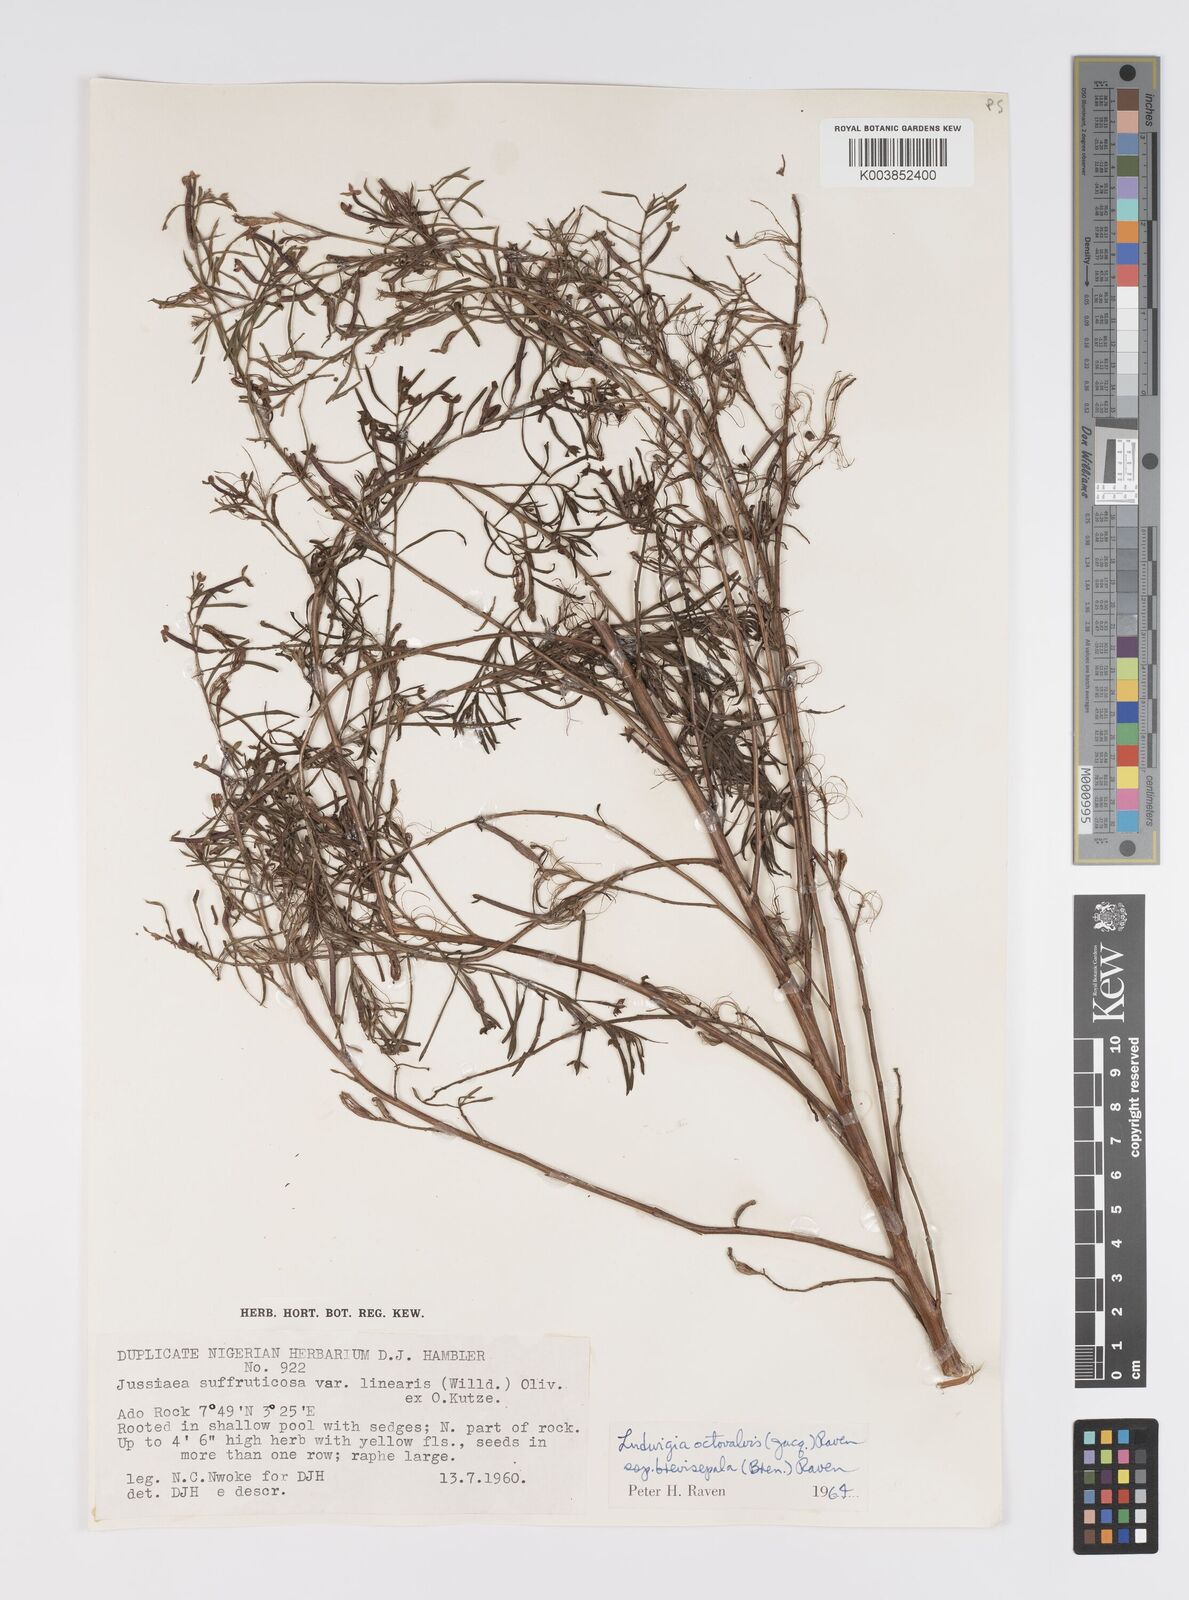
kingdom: Plantae
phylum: Tracheophyta
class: Magnoliopsida
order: Myrtales
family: Onagraceae
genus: Ludwigia
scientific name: Ludwigia octovalvis
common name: Water-primrose
